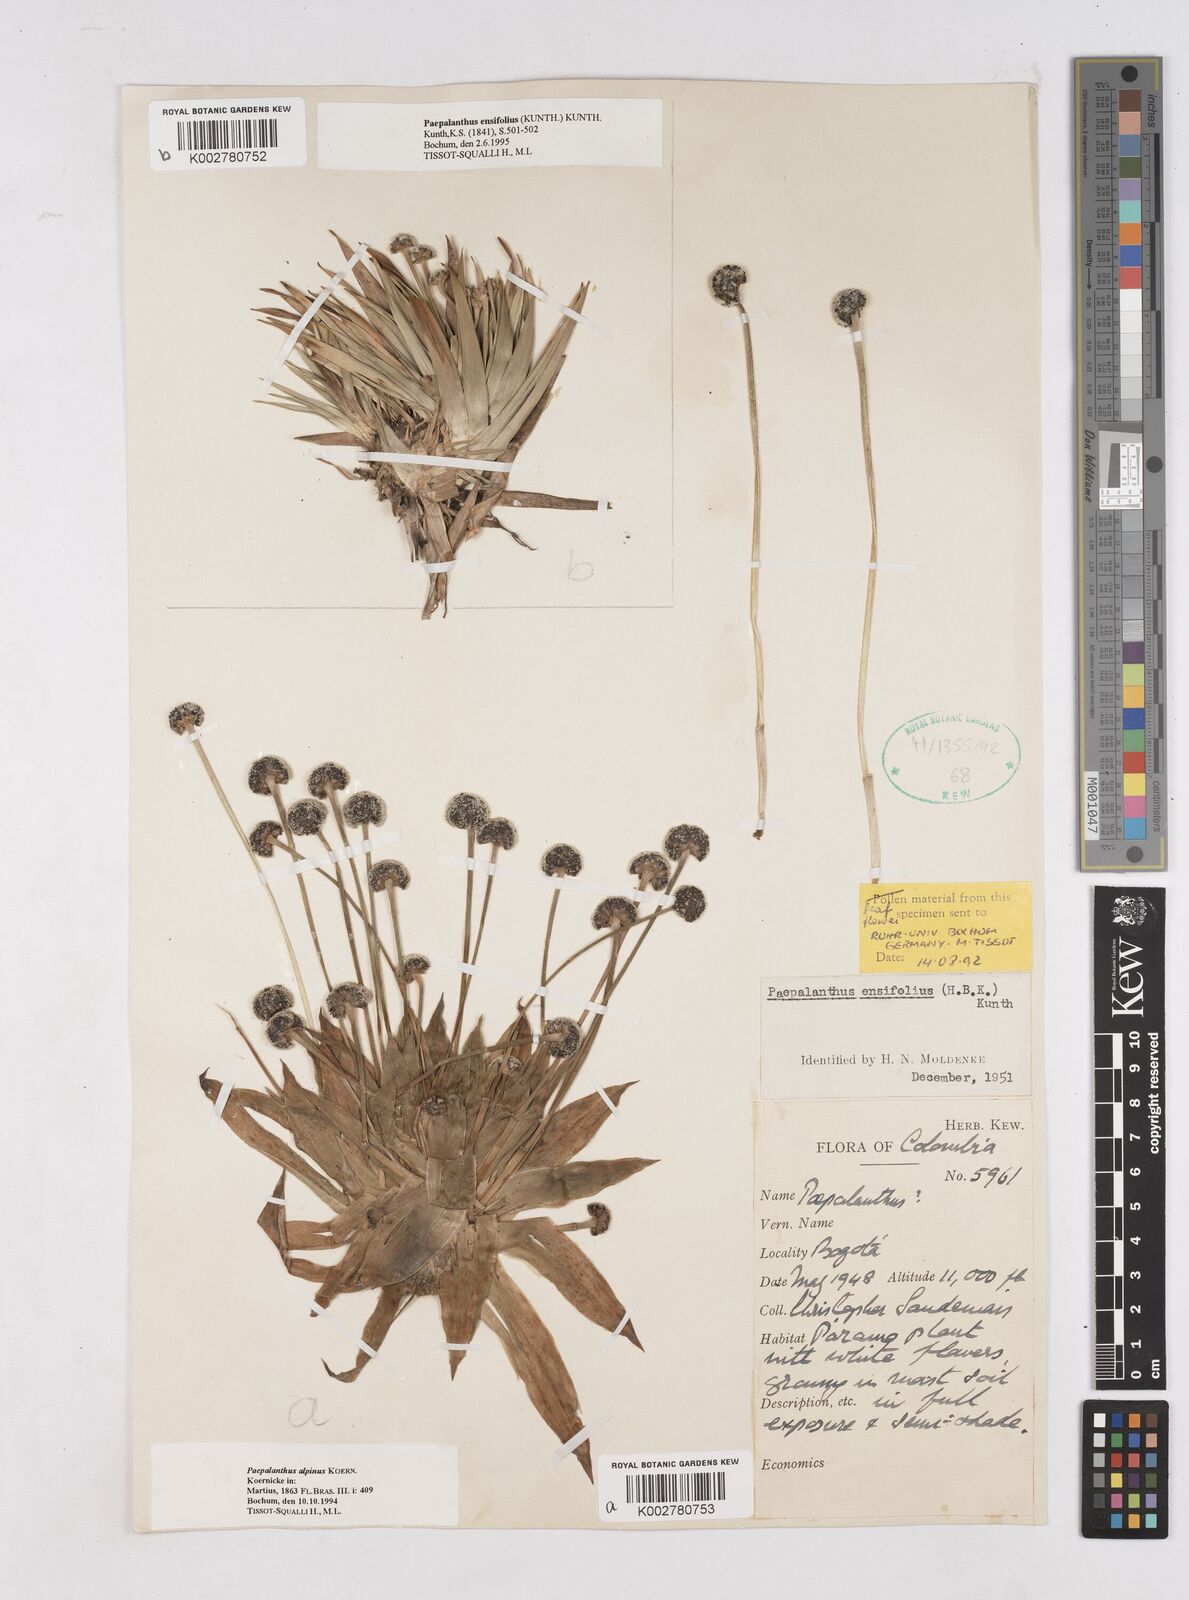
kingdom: Plantae
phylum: Tracheophyta
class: Liliopsida
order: Poales
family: Eriocaulaceae
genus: Paepalanthus
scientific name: Paepalanthus alpinus
